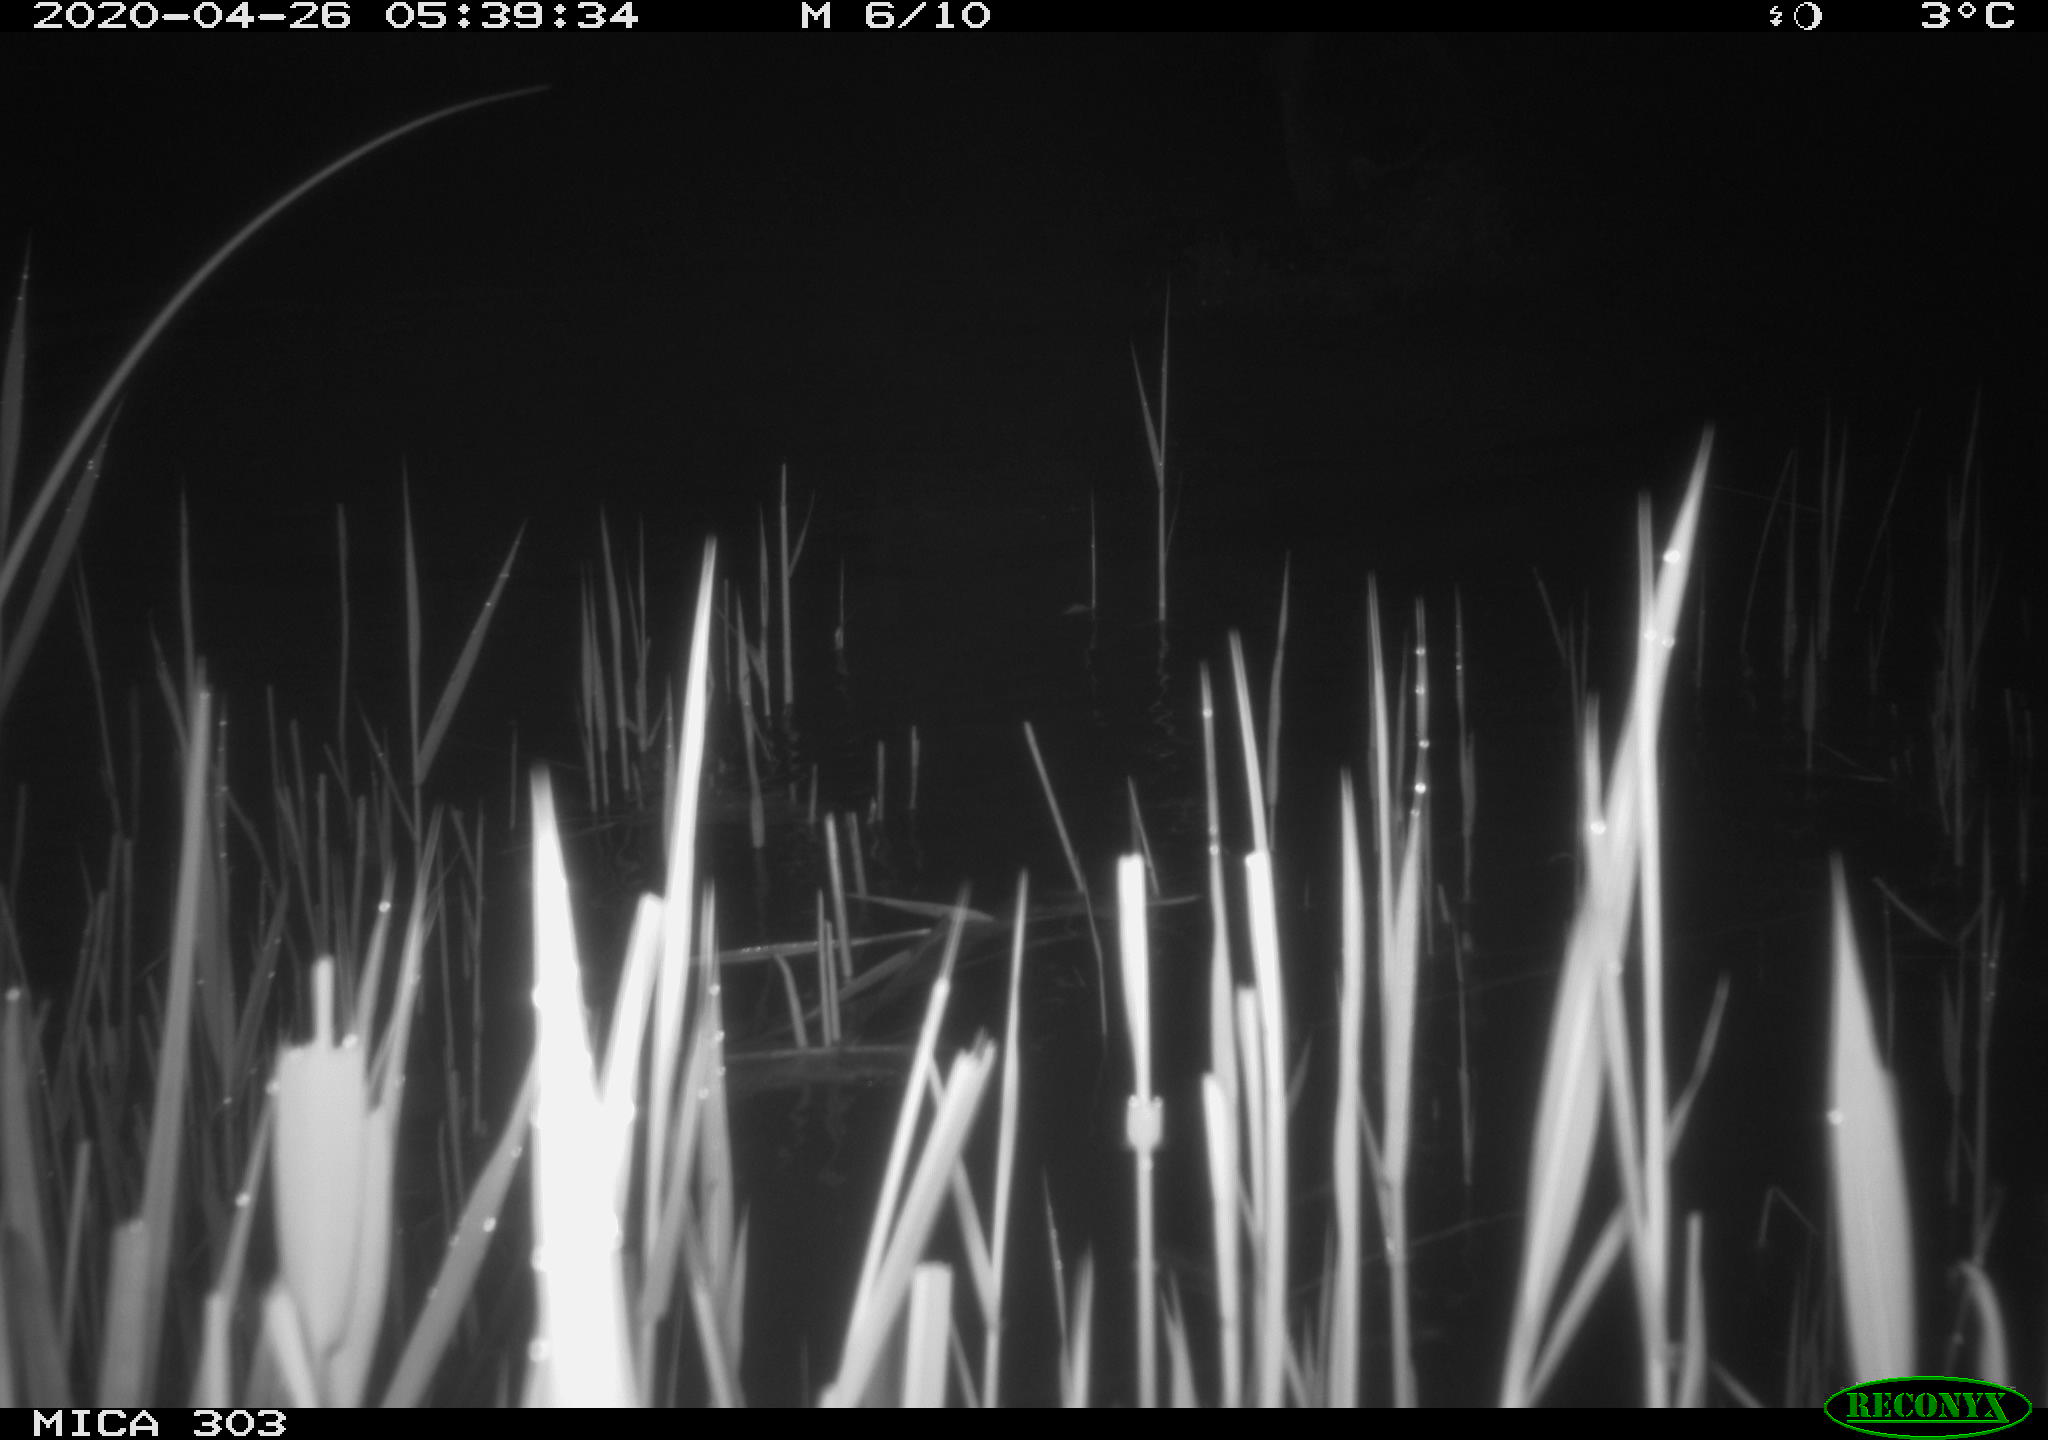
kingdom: Animalia
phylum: Chordata
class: Aves
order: Anseriformes
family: Anatidae
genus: Branta
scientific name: Branta canadensis
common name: Canada goose
